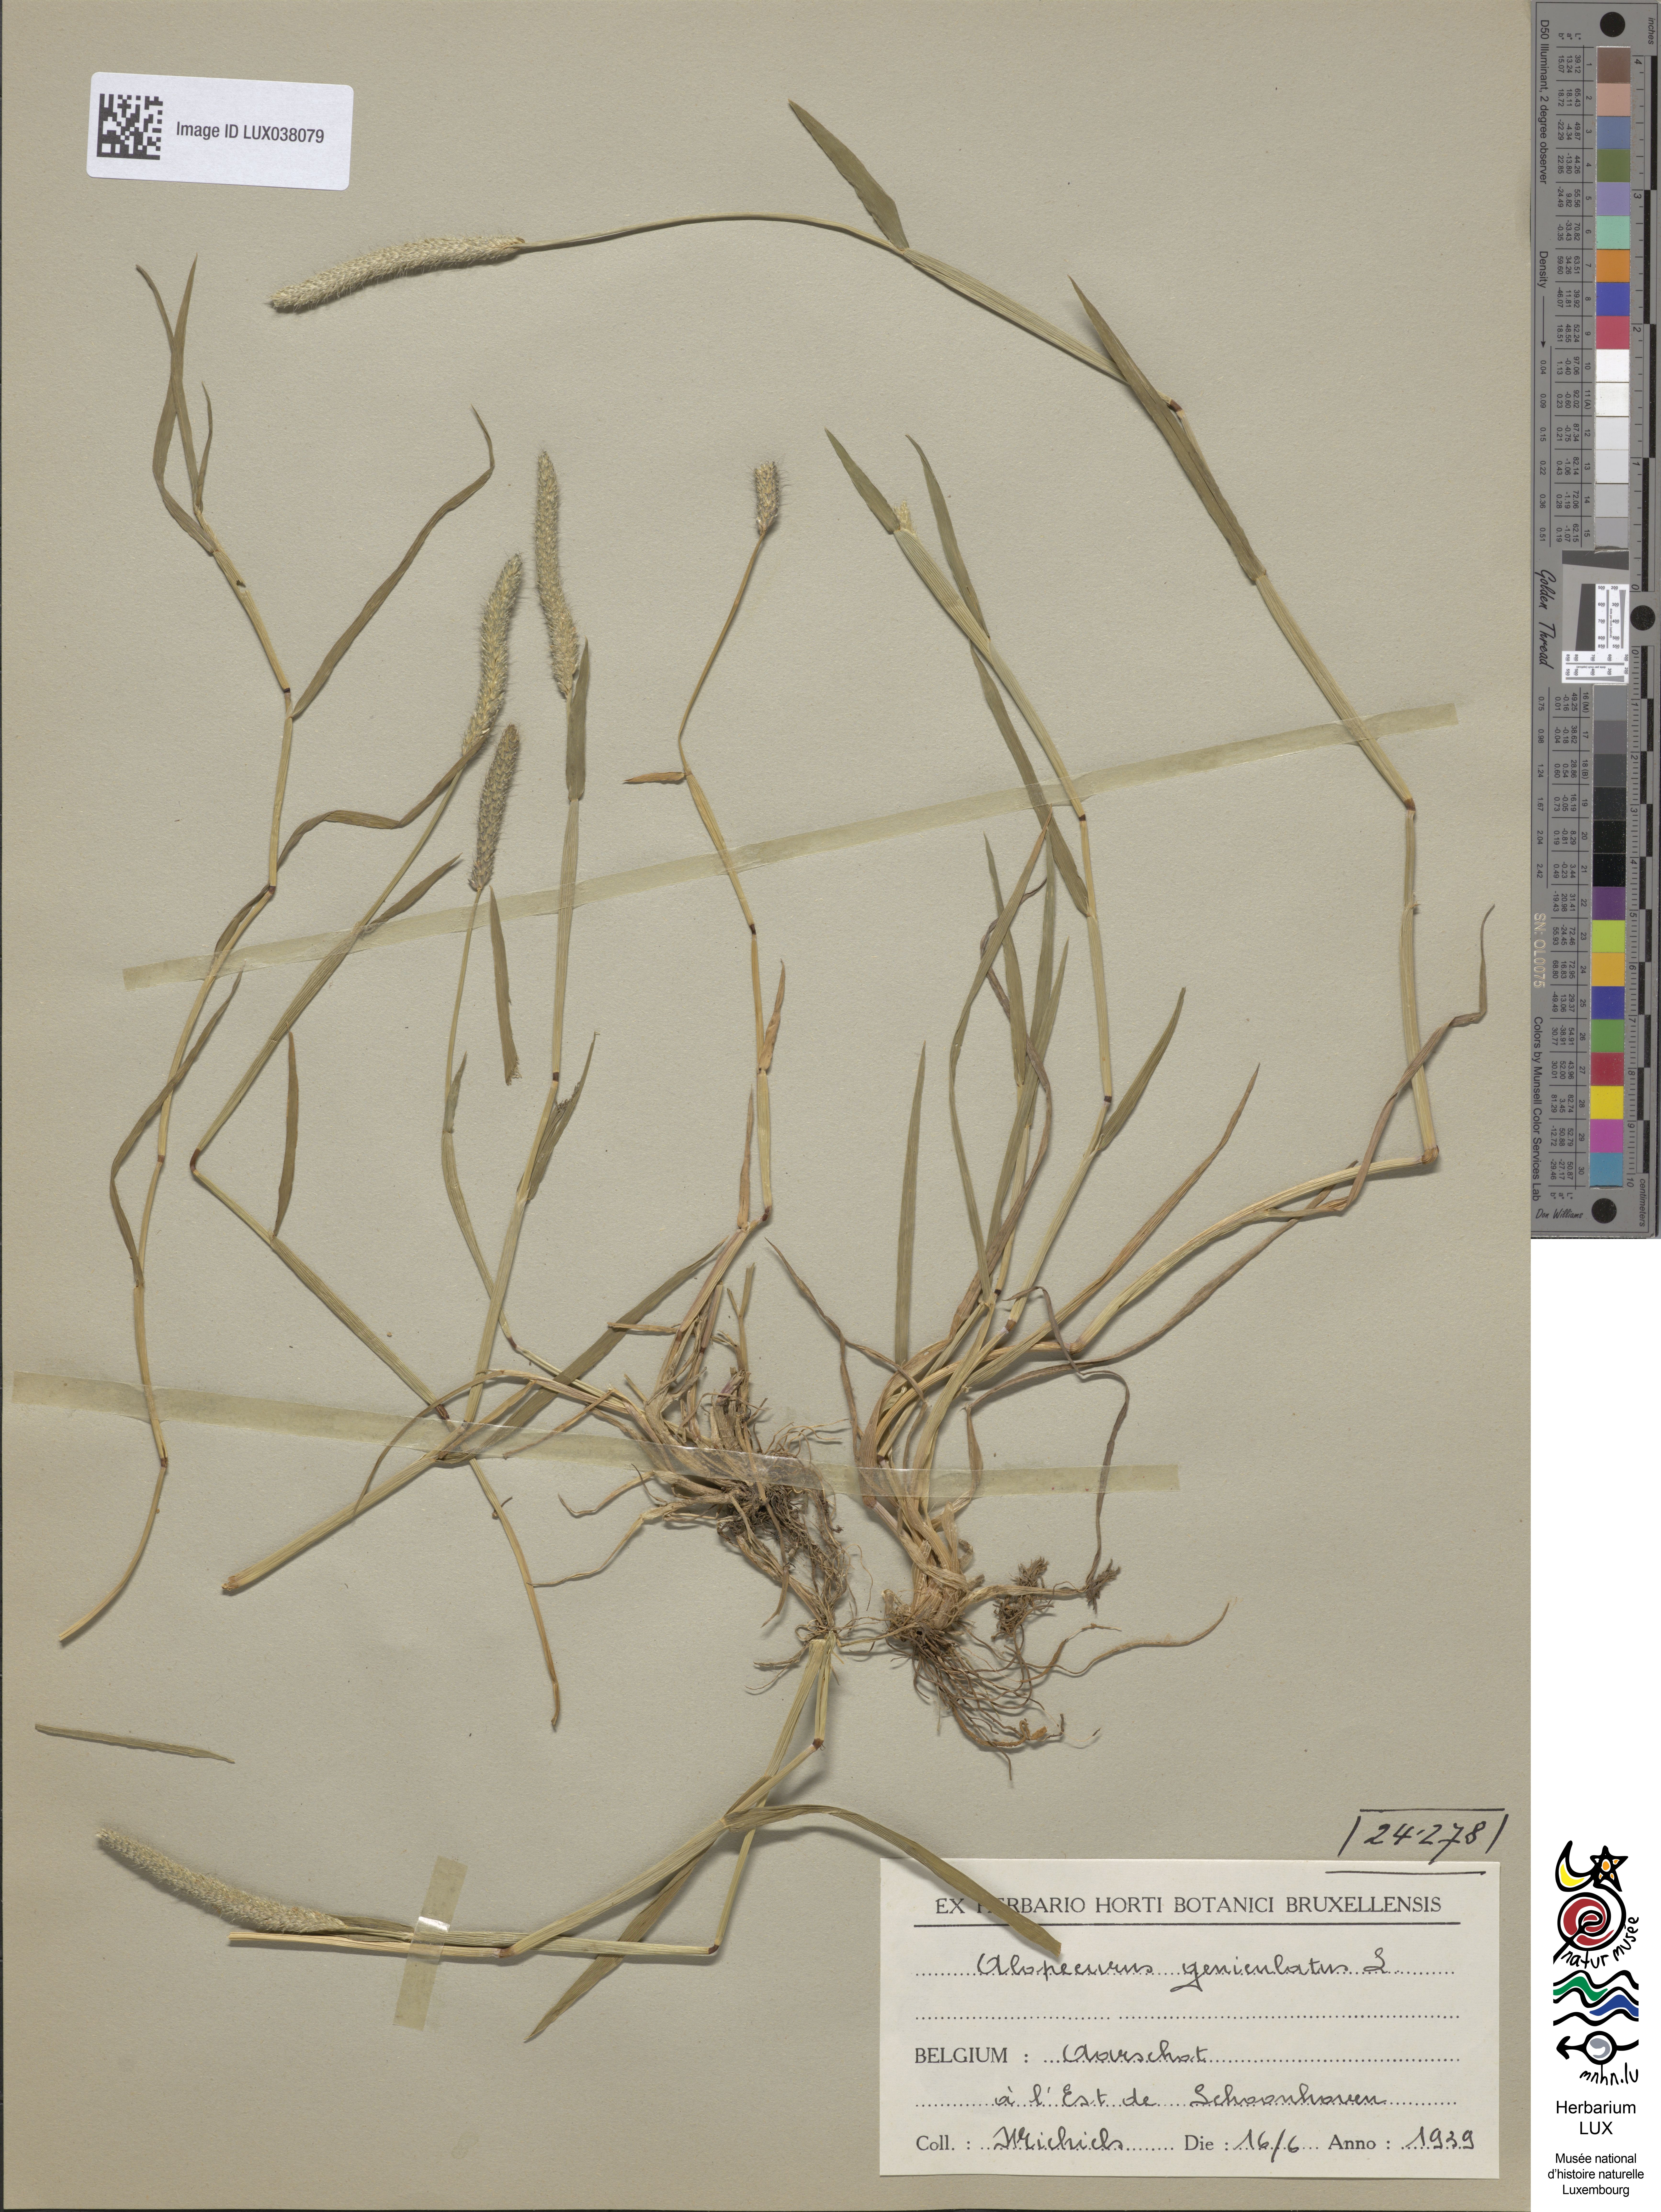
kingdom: Plantae
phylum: Tracheophyta
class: Liliopsida
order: Poales
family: Poaceae
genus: Alopecurus
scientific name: Alopecurus geniculatus
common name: Water foxtail
